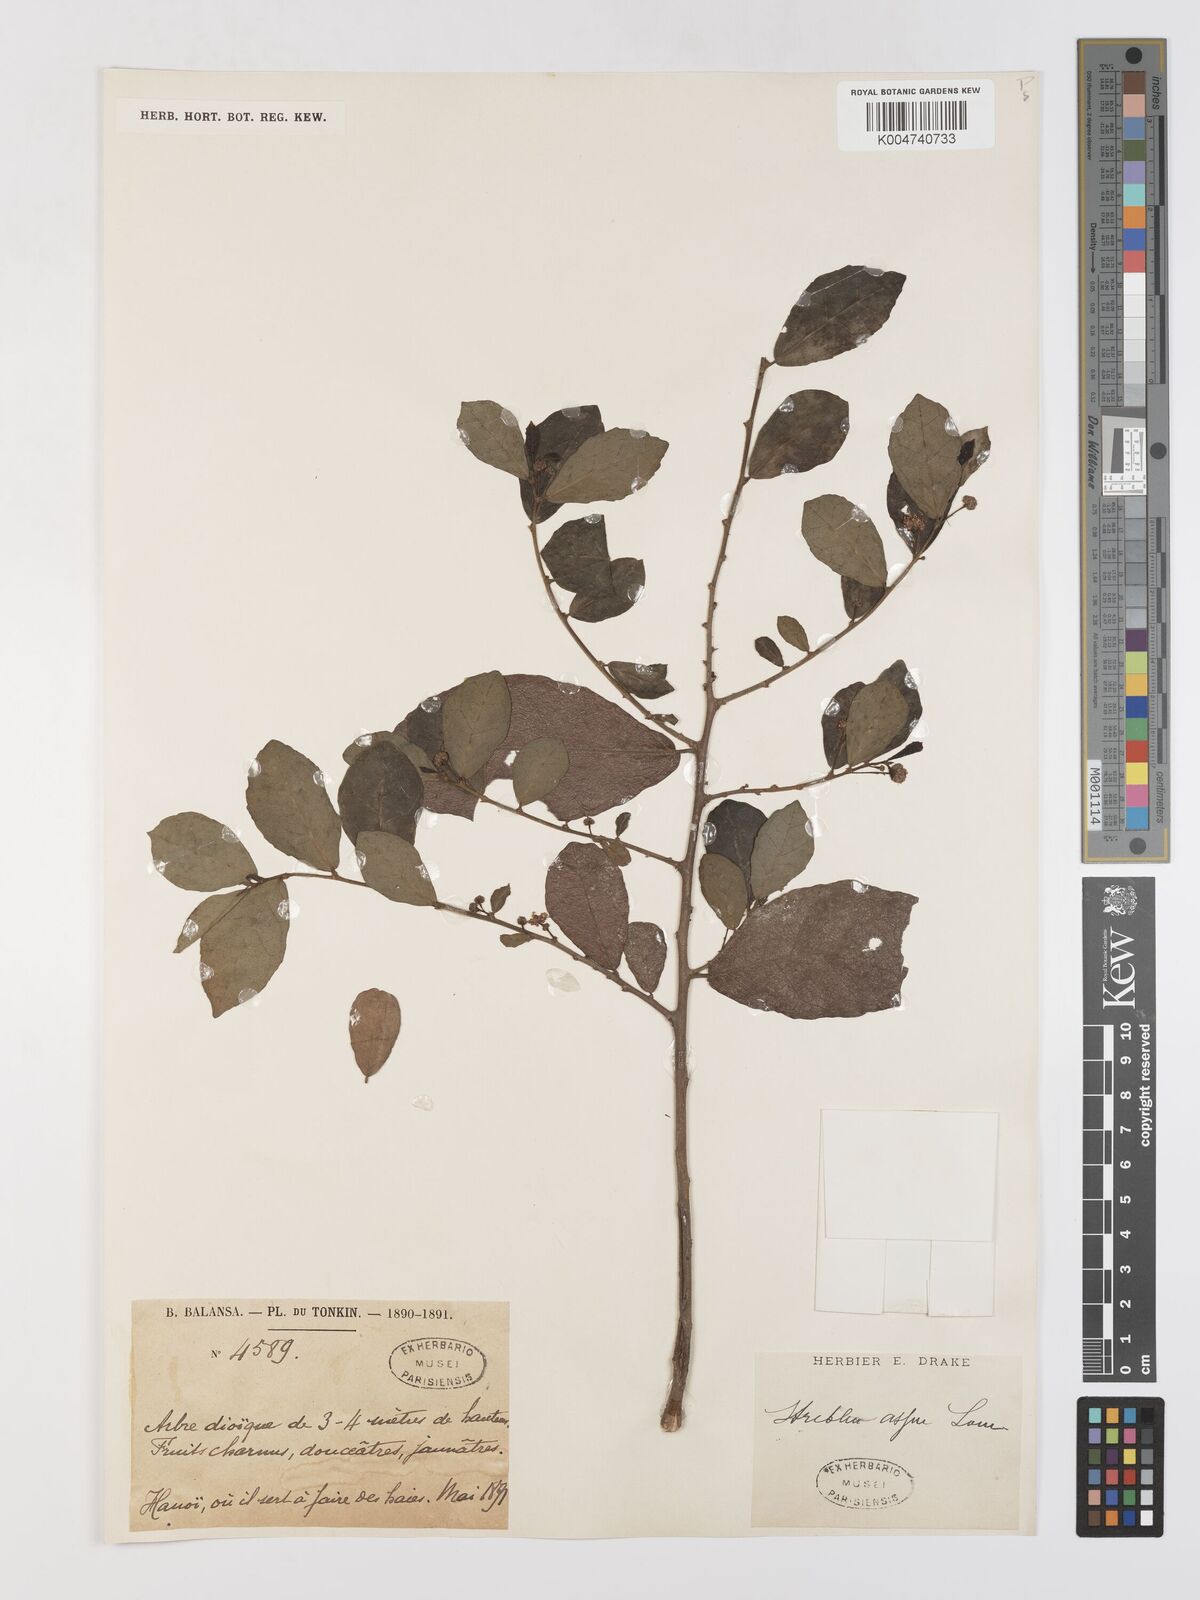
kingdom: Plantae
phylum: Tracheophyta
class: Magnoliopsida
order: Rosales
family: Moraceae
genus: Streblus
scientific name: Streblus asper
